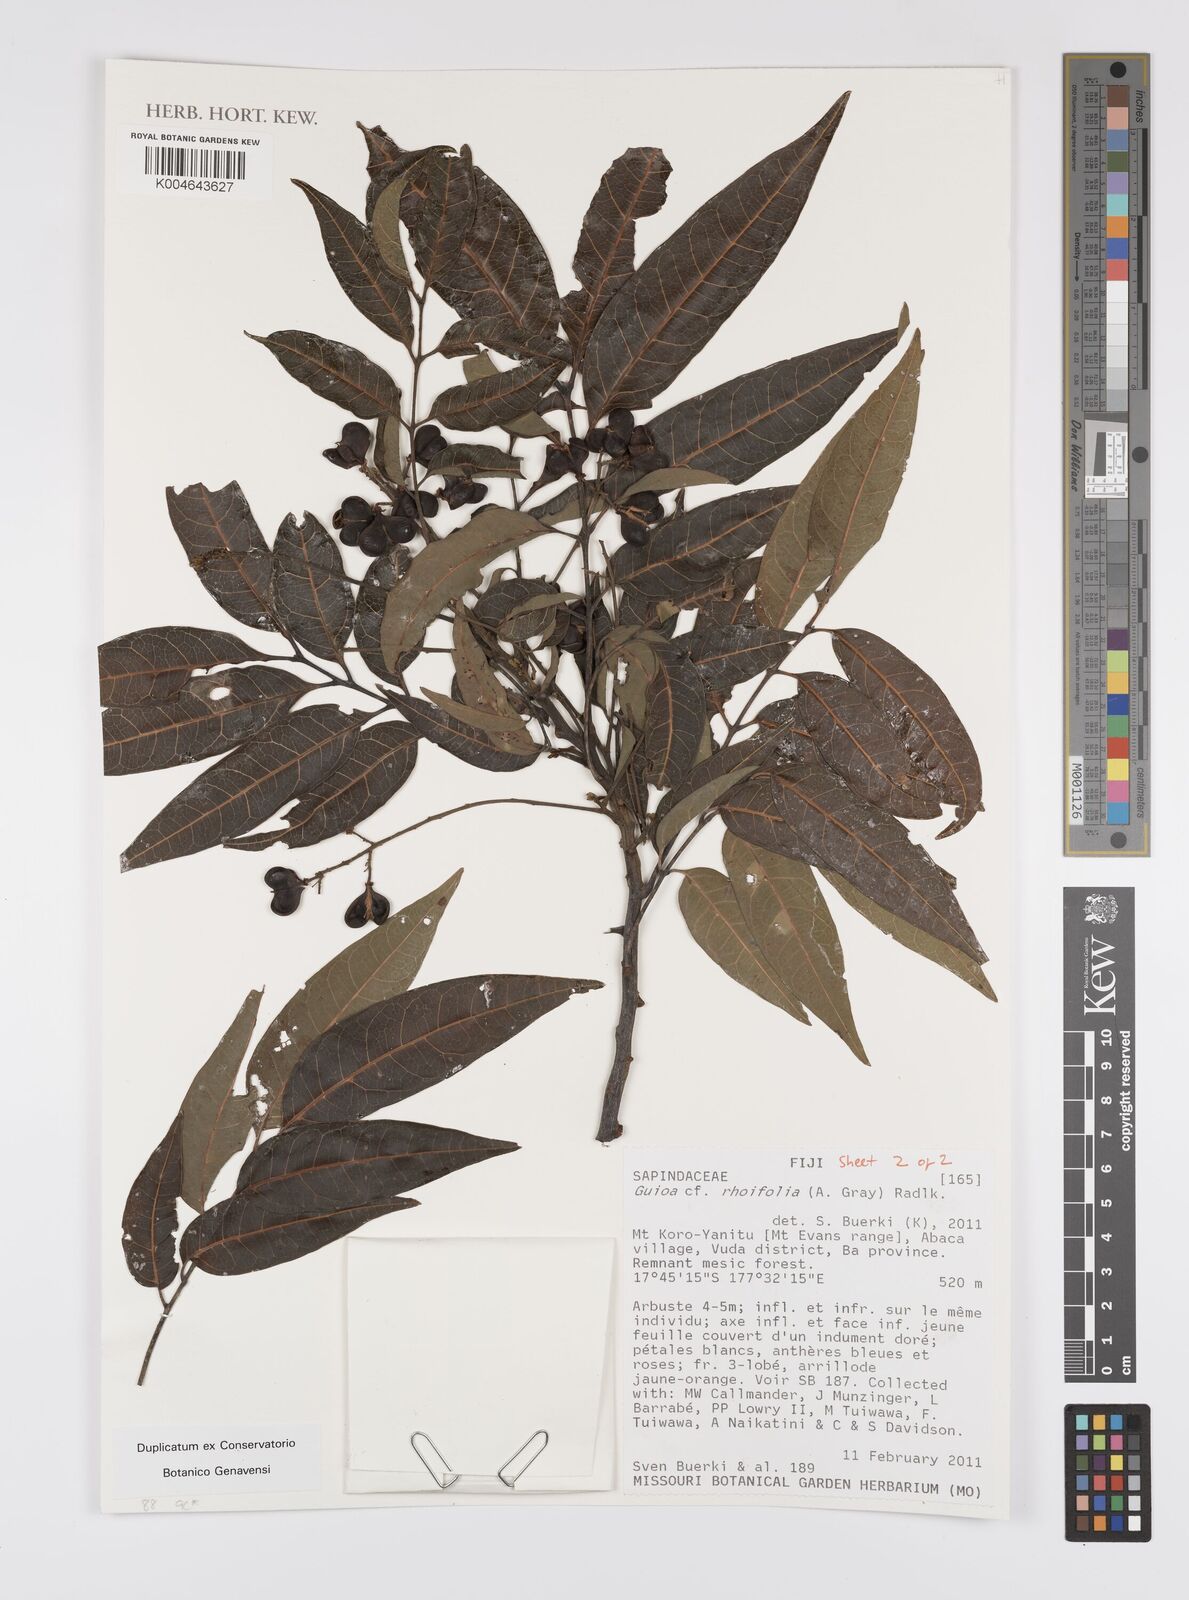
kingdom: Plantae
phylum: Tracheophyta
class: Magnoliopsida
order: Sapindales
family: Sapindaceae
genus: Guioa
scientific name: Guioa rhoifolia
